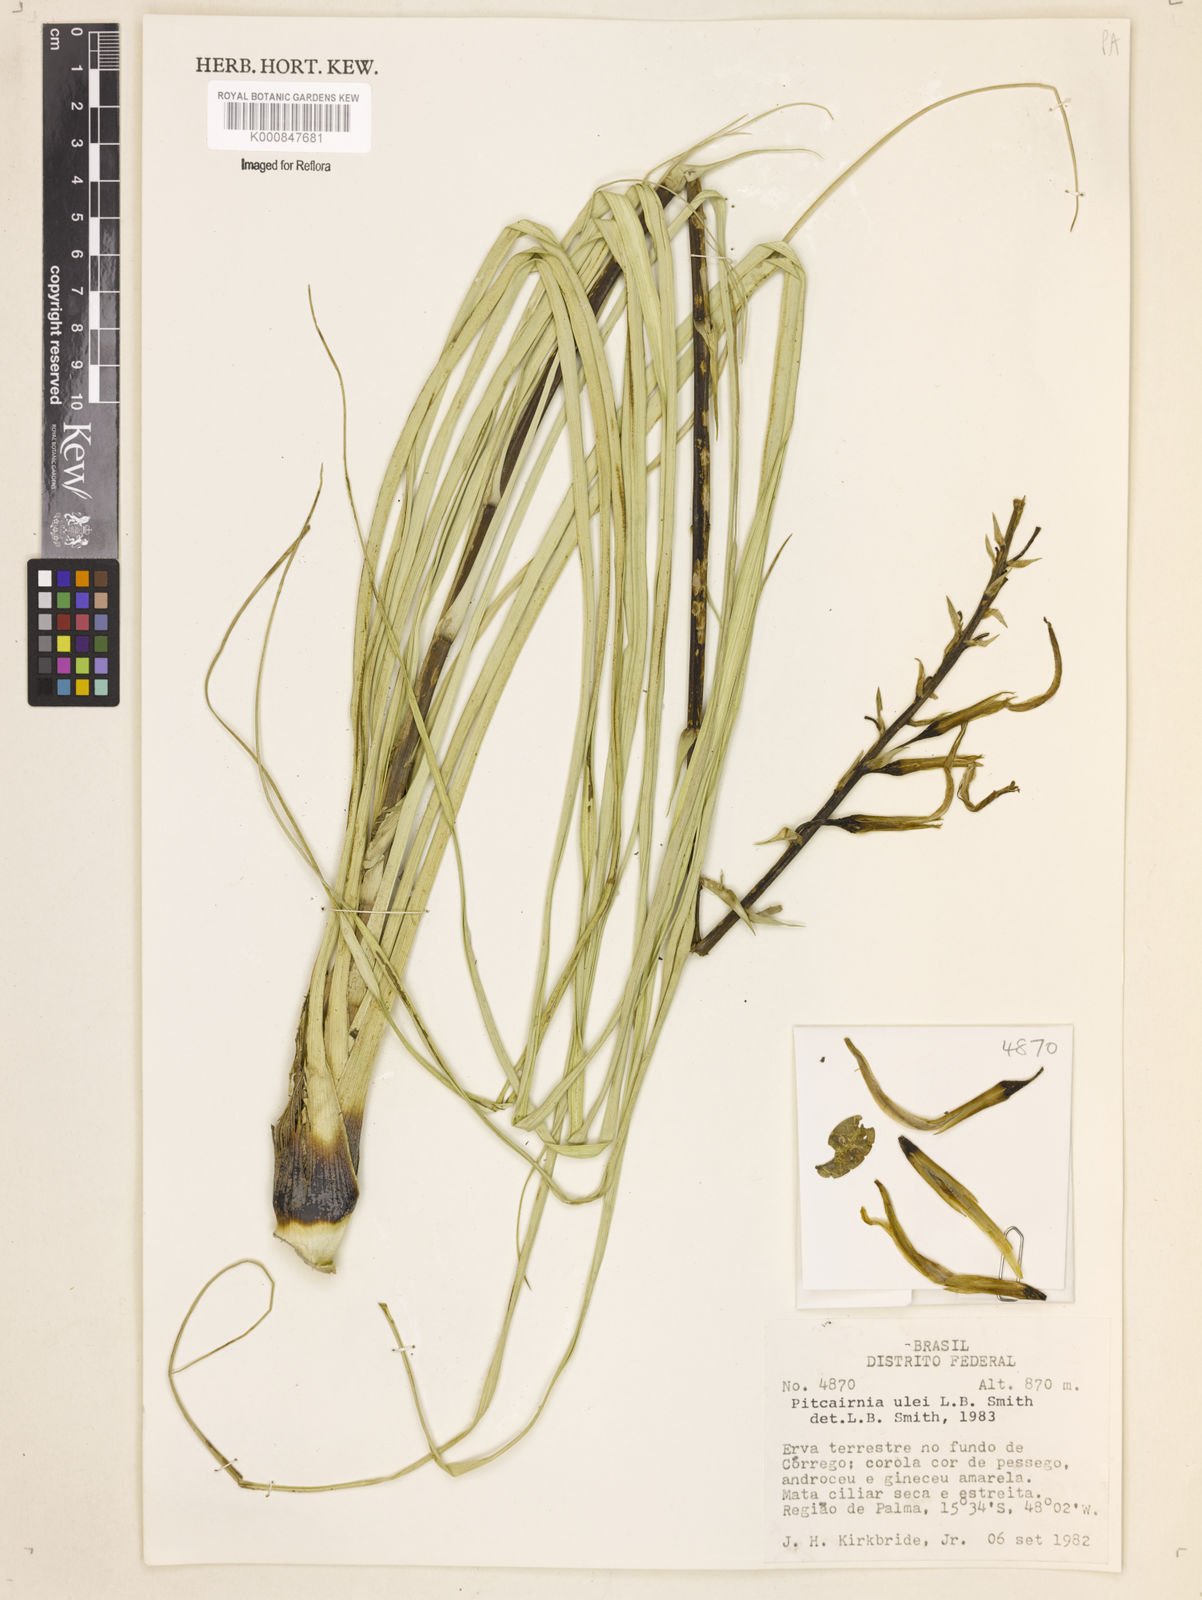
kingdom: Plantae
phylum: Tracheophyta
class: Liliopsida
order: Poales
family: Bromeliaceae
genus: Pitcairnia
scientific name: Pitcairnia ulei
